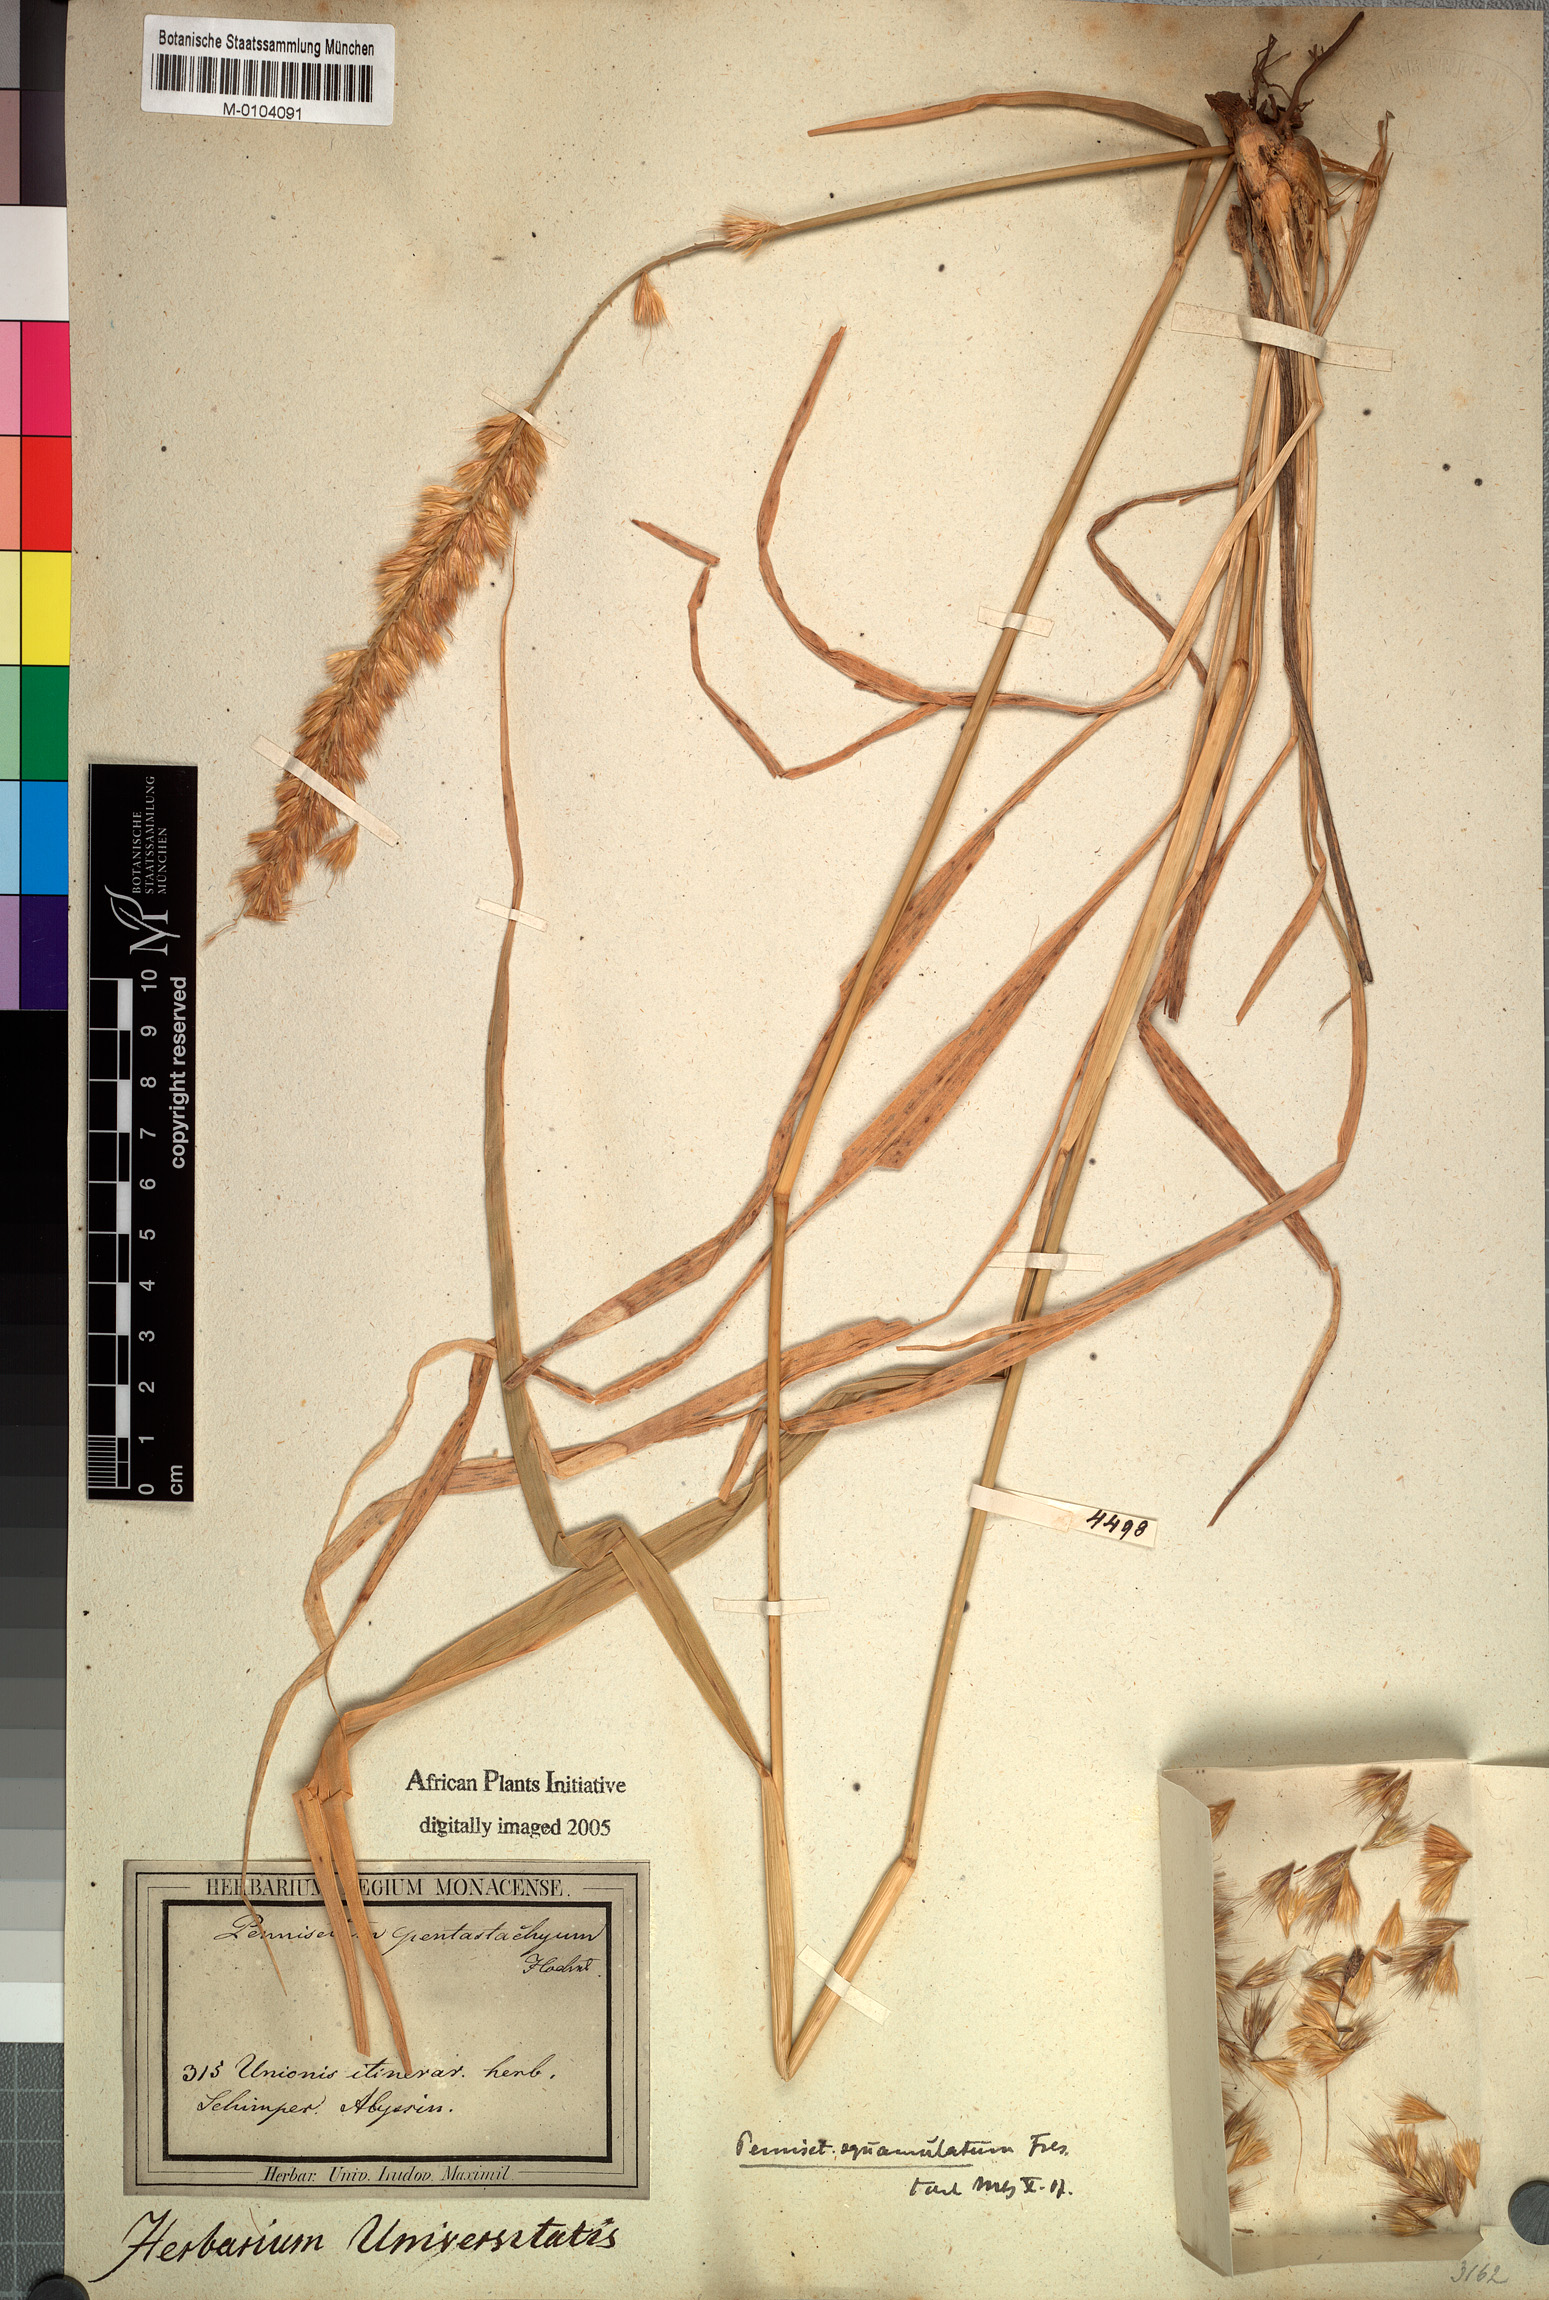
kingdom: Plantae
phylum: Tracheophyta
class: Liliopsida
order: Poales
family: Poaceae
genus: Cenchrus
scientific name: Cenchrus squamulatus
